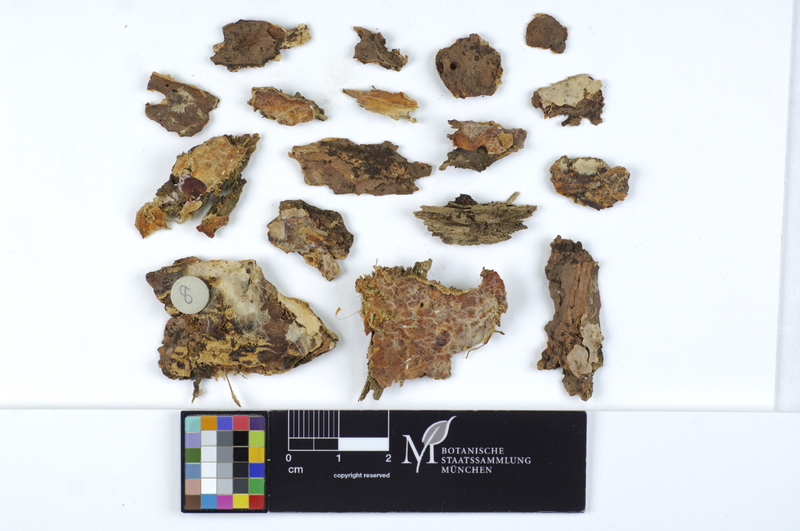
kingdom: Fungi
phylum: Basidiomycota
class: Agaricomycetes
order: Polyporales
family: Phanerochaetaceae
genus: Rhizochaete
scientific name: Rhizochaete violascens
